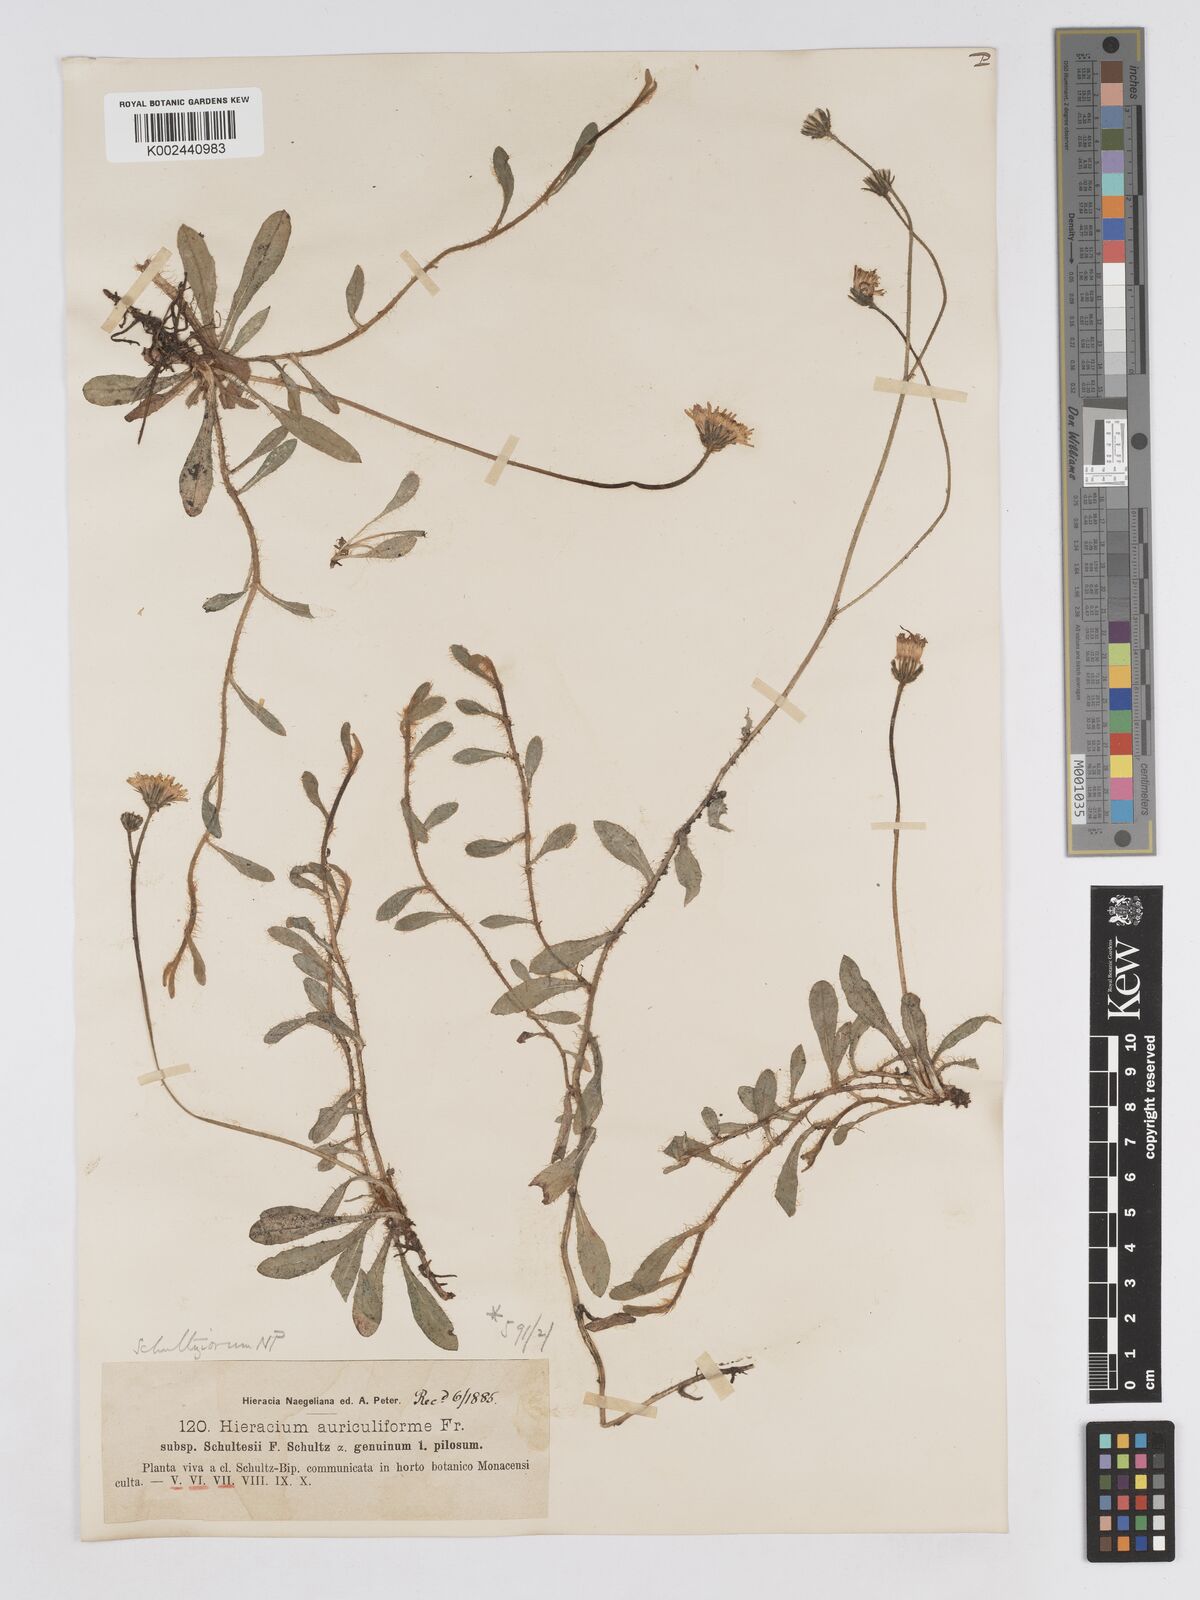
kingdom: Plantae
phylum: Tracheophyta
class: Magnoliopsida
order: Asterales
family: Asteraceae
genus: Pilosella
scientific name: Pilosella schultesii
